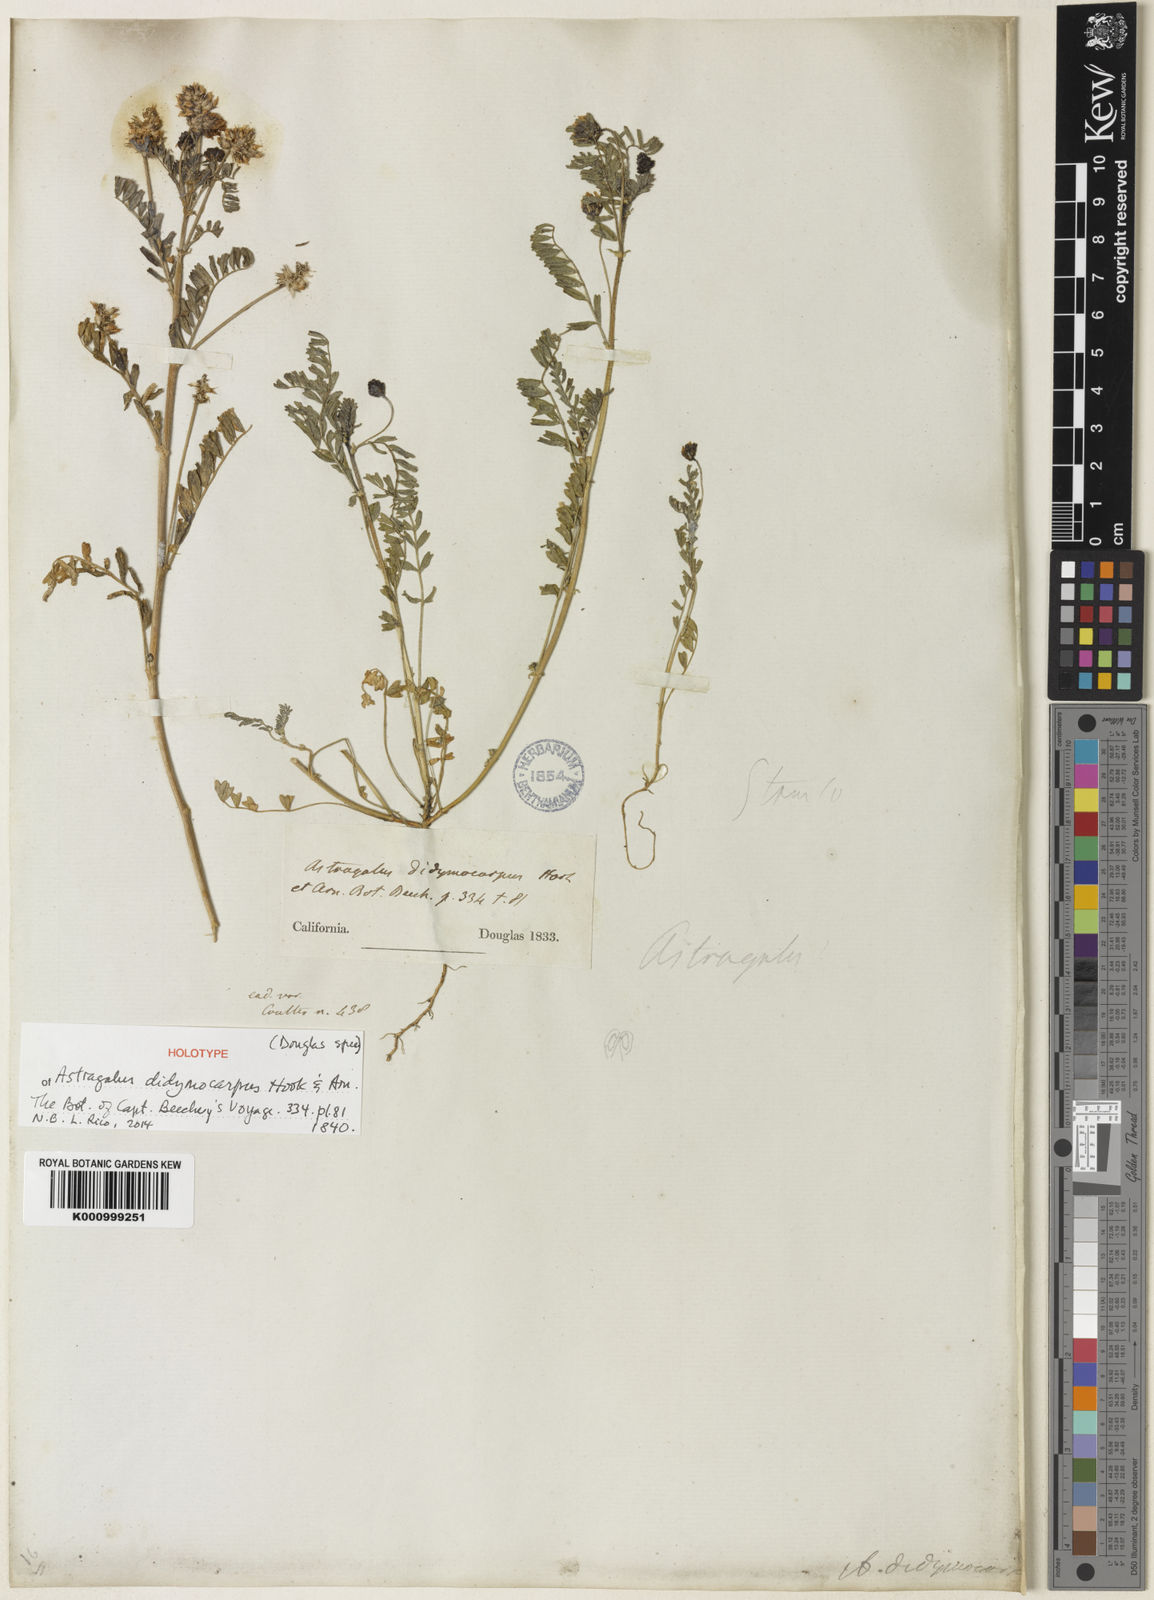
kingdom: Plantae
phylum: Tracheophyta
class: Magnoliopsida
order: Fabales
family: Fabaceae
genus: Astragalus
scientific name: Astragalus didymocarpus
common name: Dwarf white milkvetch
